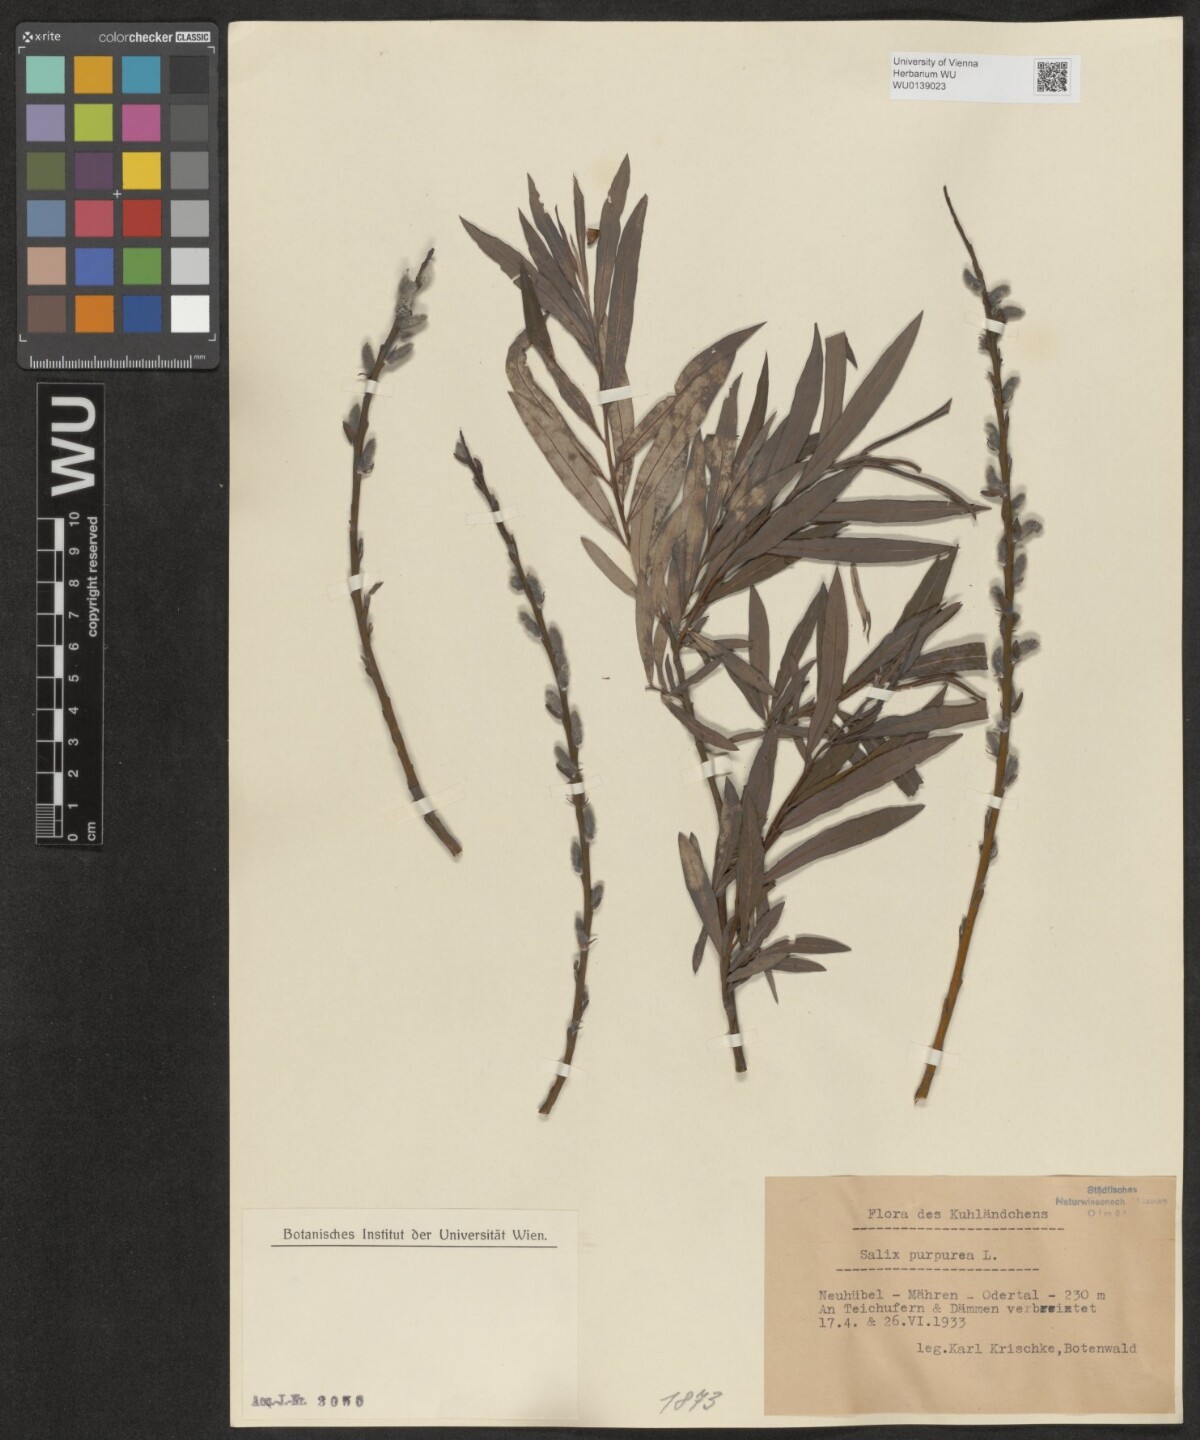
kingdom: Plantae
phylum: Tracheophyta
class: Magnoliopsida
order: Malpighiales
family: Salicaceae
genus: Salix
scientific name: Salix purpurea
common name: Purple willow
